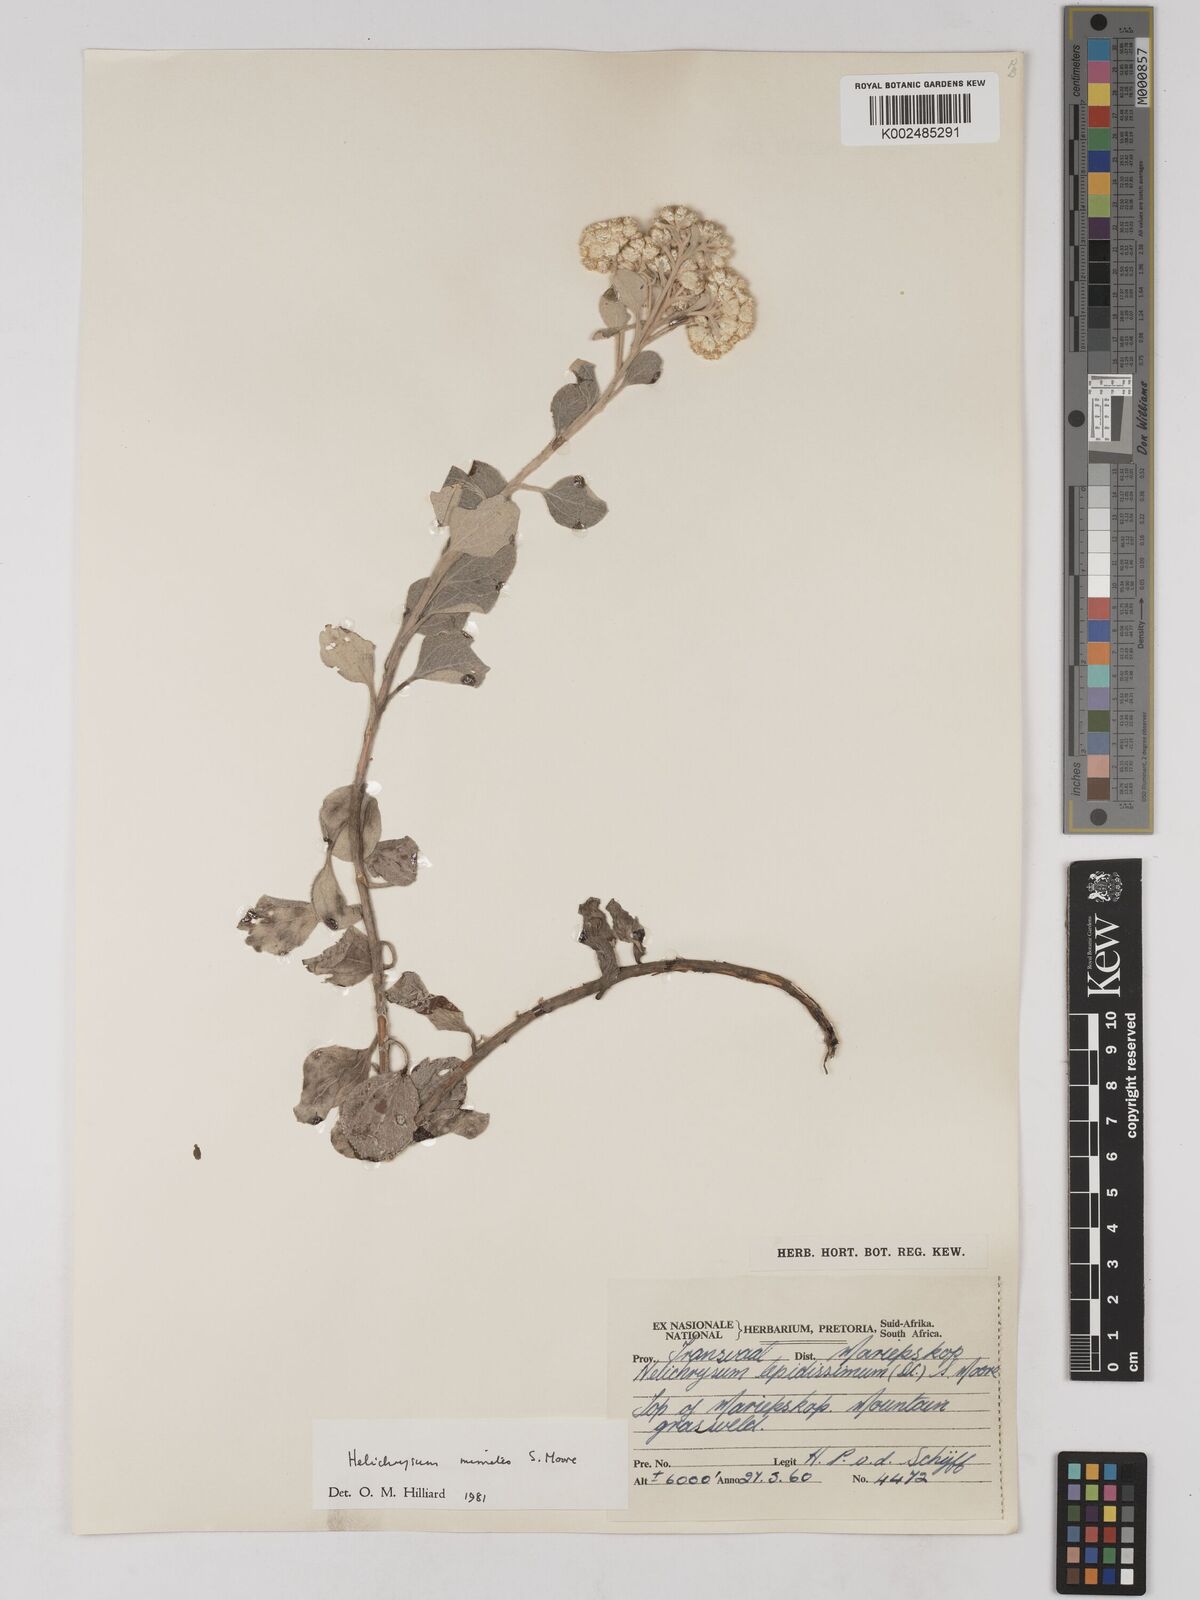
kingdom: Plantae
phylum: Tracheophyta
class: Magnoliopsida
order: Asterales
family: Asteraceae
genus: Helichrysum
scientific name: Helichrysum mimetes
